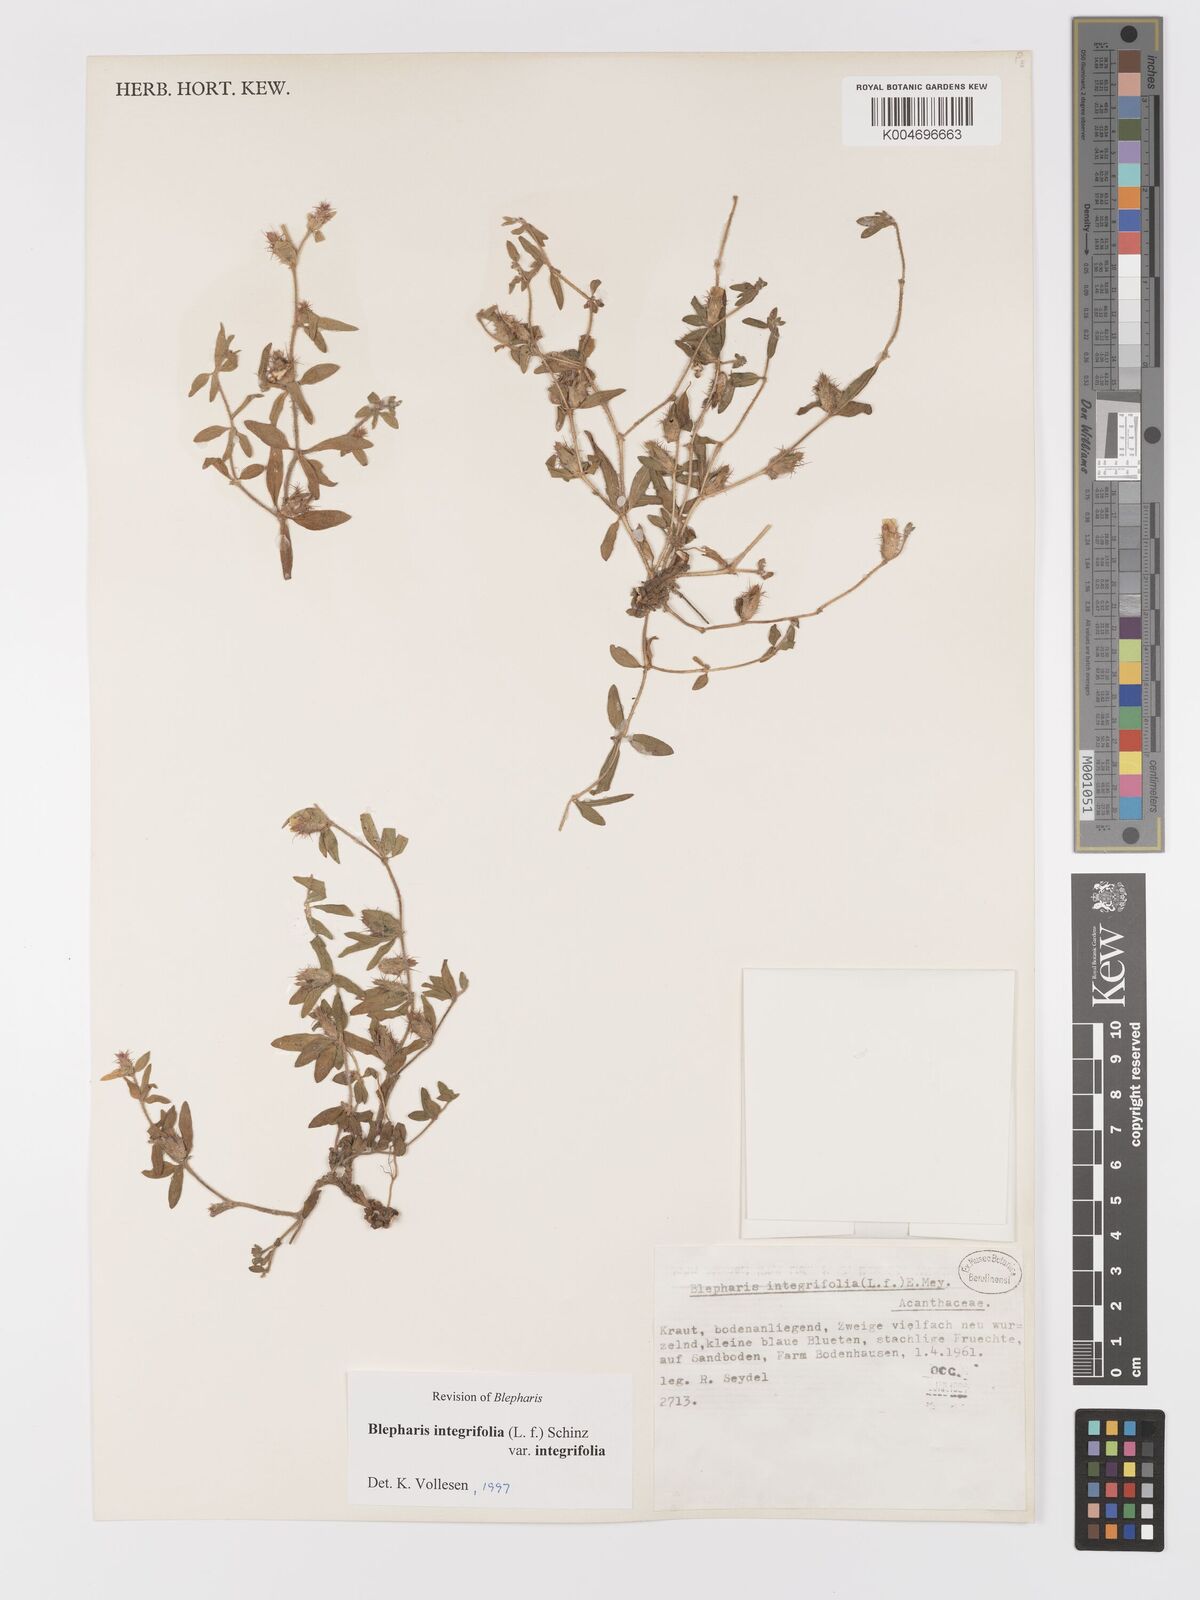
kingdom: Plantae
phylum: Tracheophyta
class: Magnoliopsida
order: Lamiales
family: Acanthaceae
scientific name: Acanthaceae
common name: Acanthaceae
